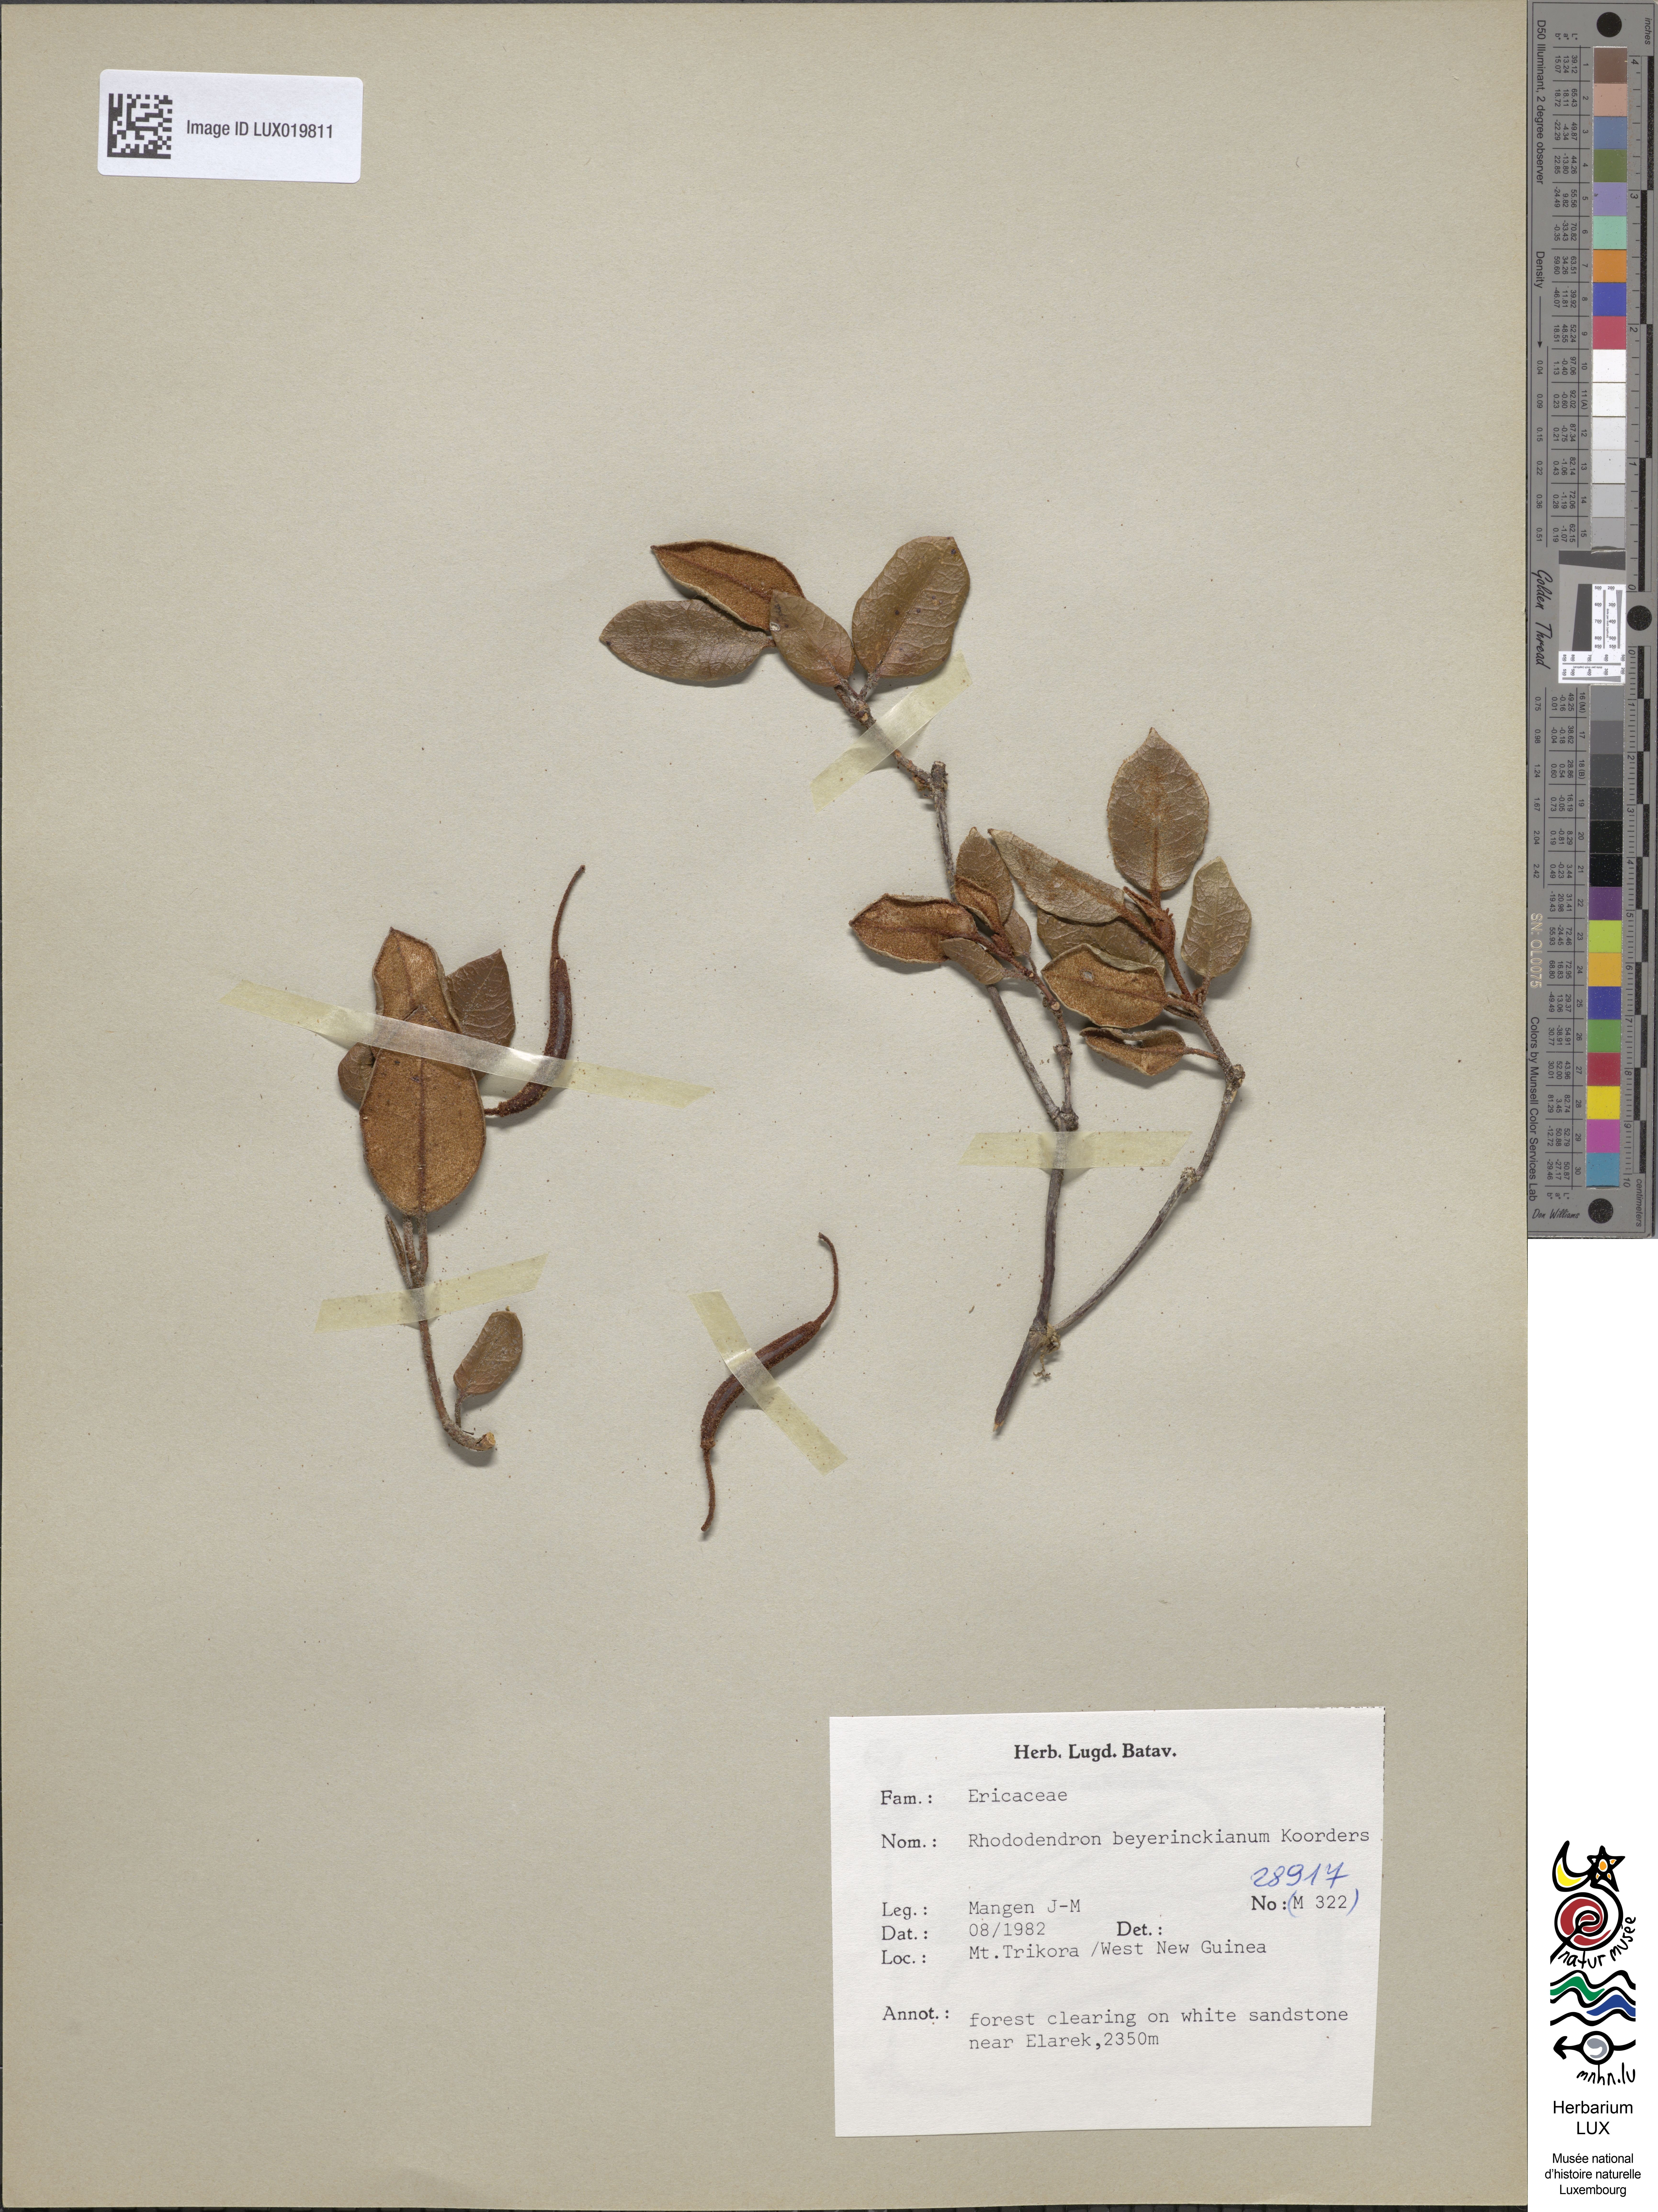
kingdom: Plantae
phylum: Tracheophyta
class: Magnoliopsida
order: Ericales
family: Ericaceae
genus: Rhododendron
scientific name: Rhododendron beyerinckianum
